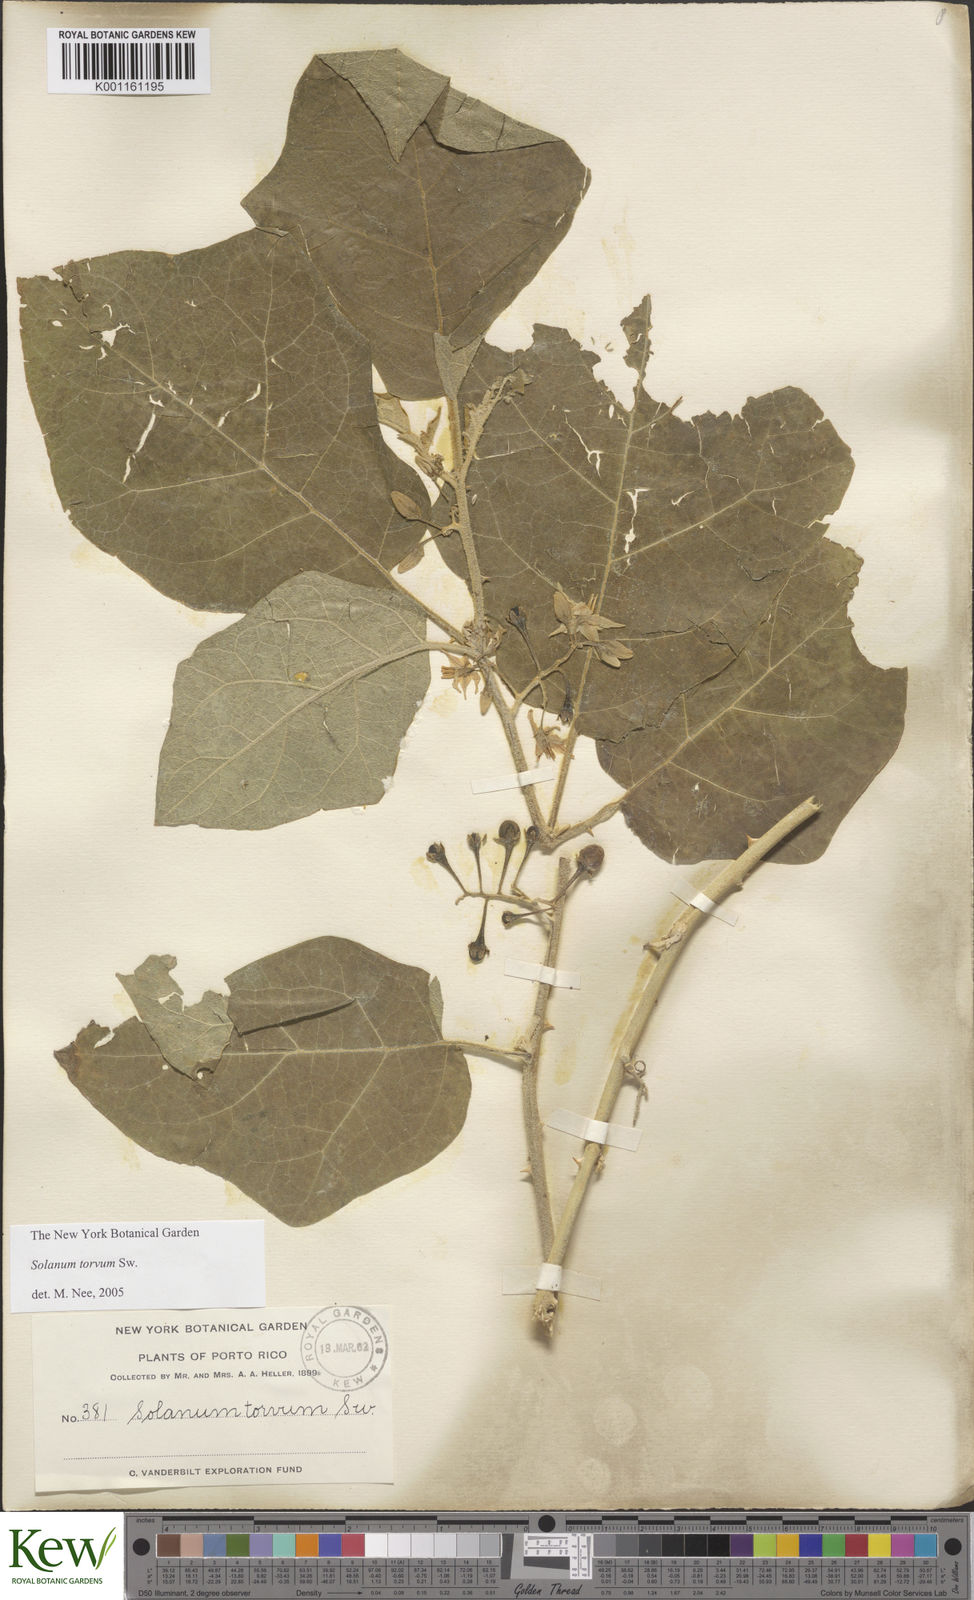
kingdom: Plantae
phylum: Tracheophyta
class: Magnoliopsida
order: Solanales
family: Solanaceae
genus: Solanum
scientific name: Solanum torvum
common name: Turkey berry
